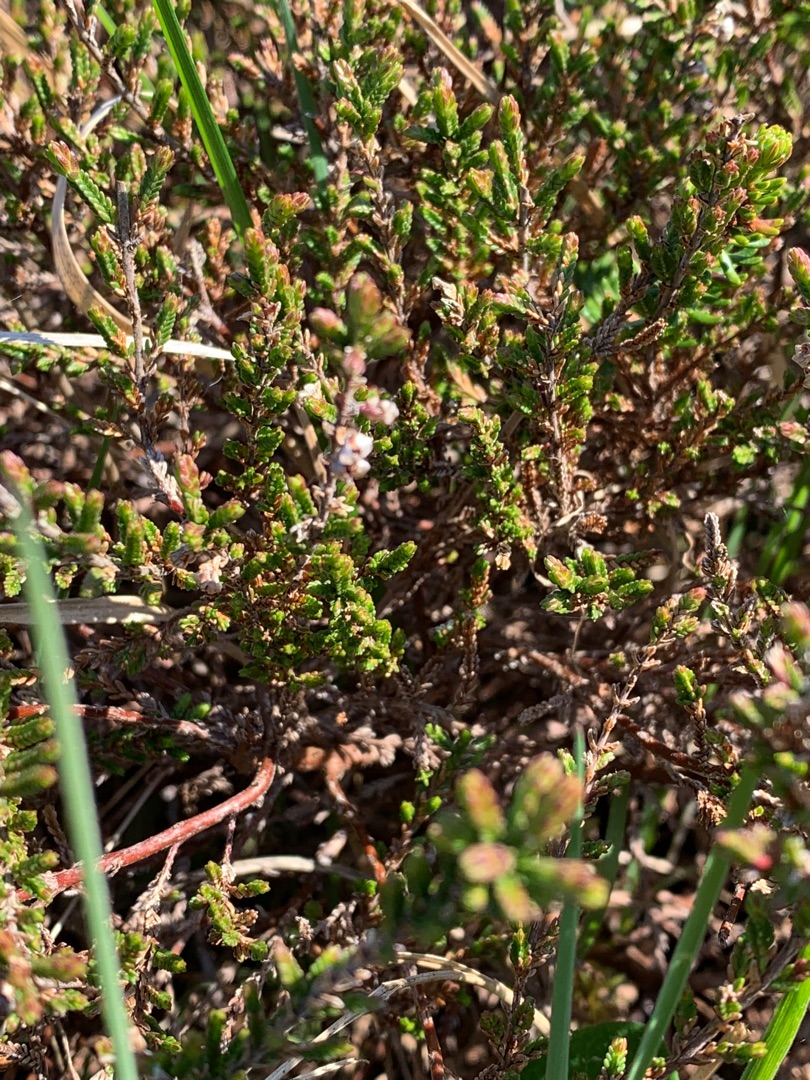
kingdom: Plantae
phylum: Tracheophyta
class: Magnoliopsida
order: Ericales
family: Ericaceae
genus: Calluna
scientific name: Calluna vulgaris
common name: Hedelyng
